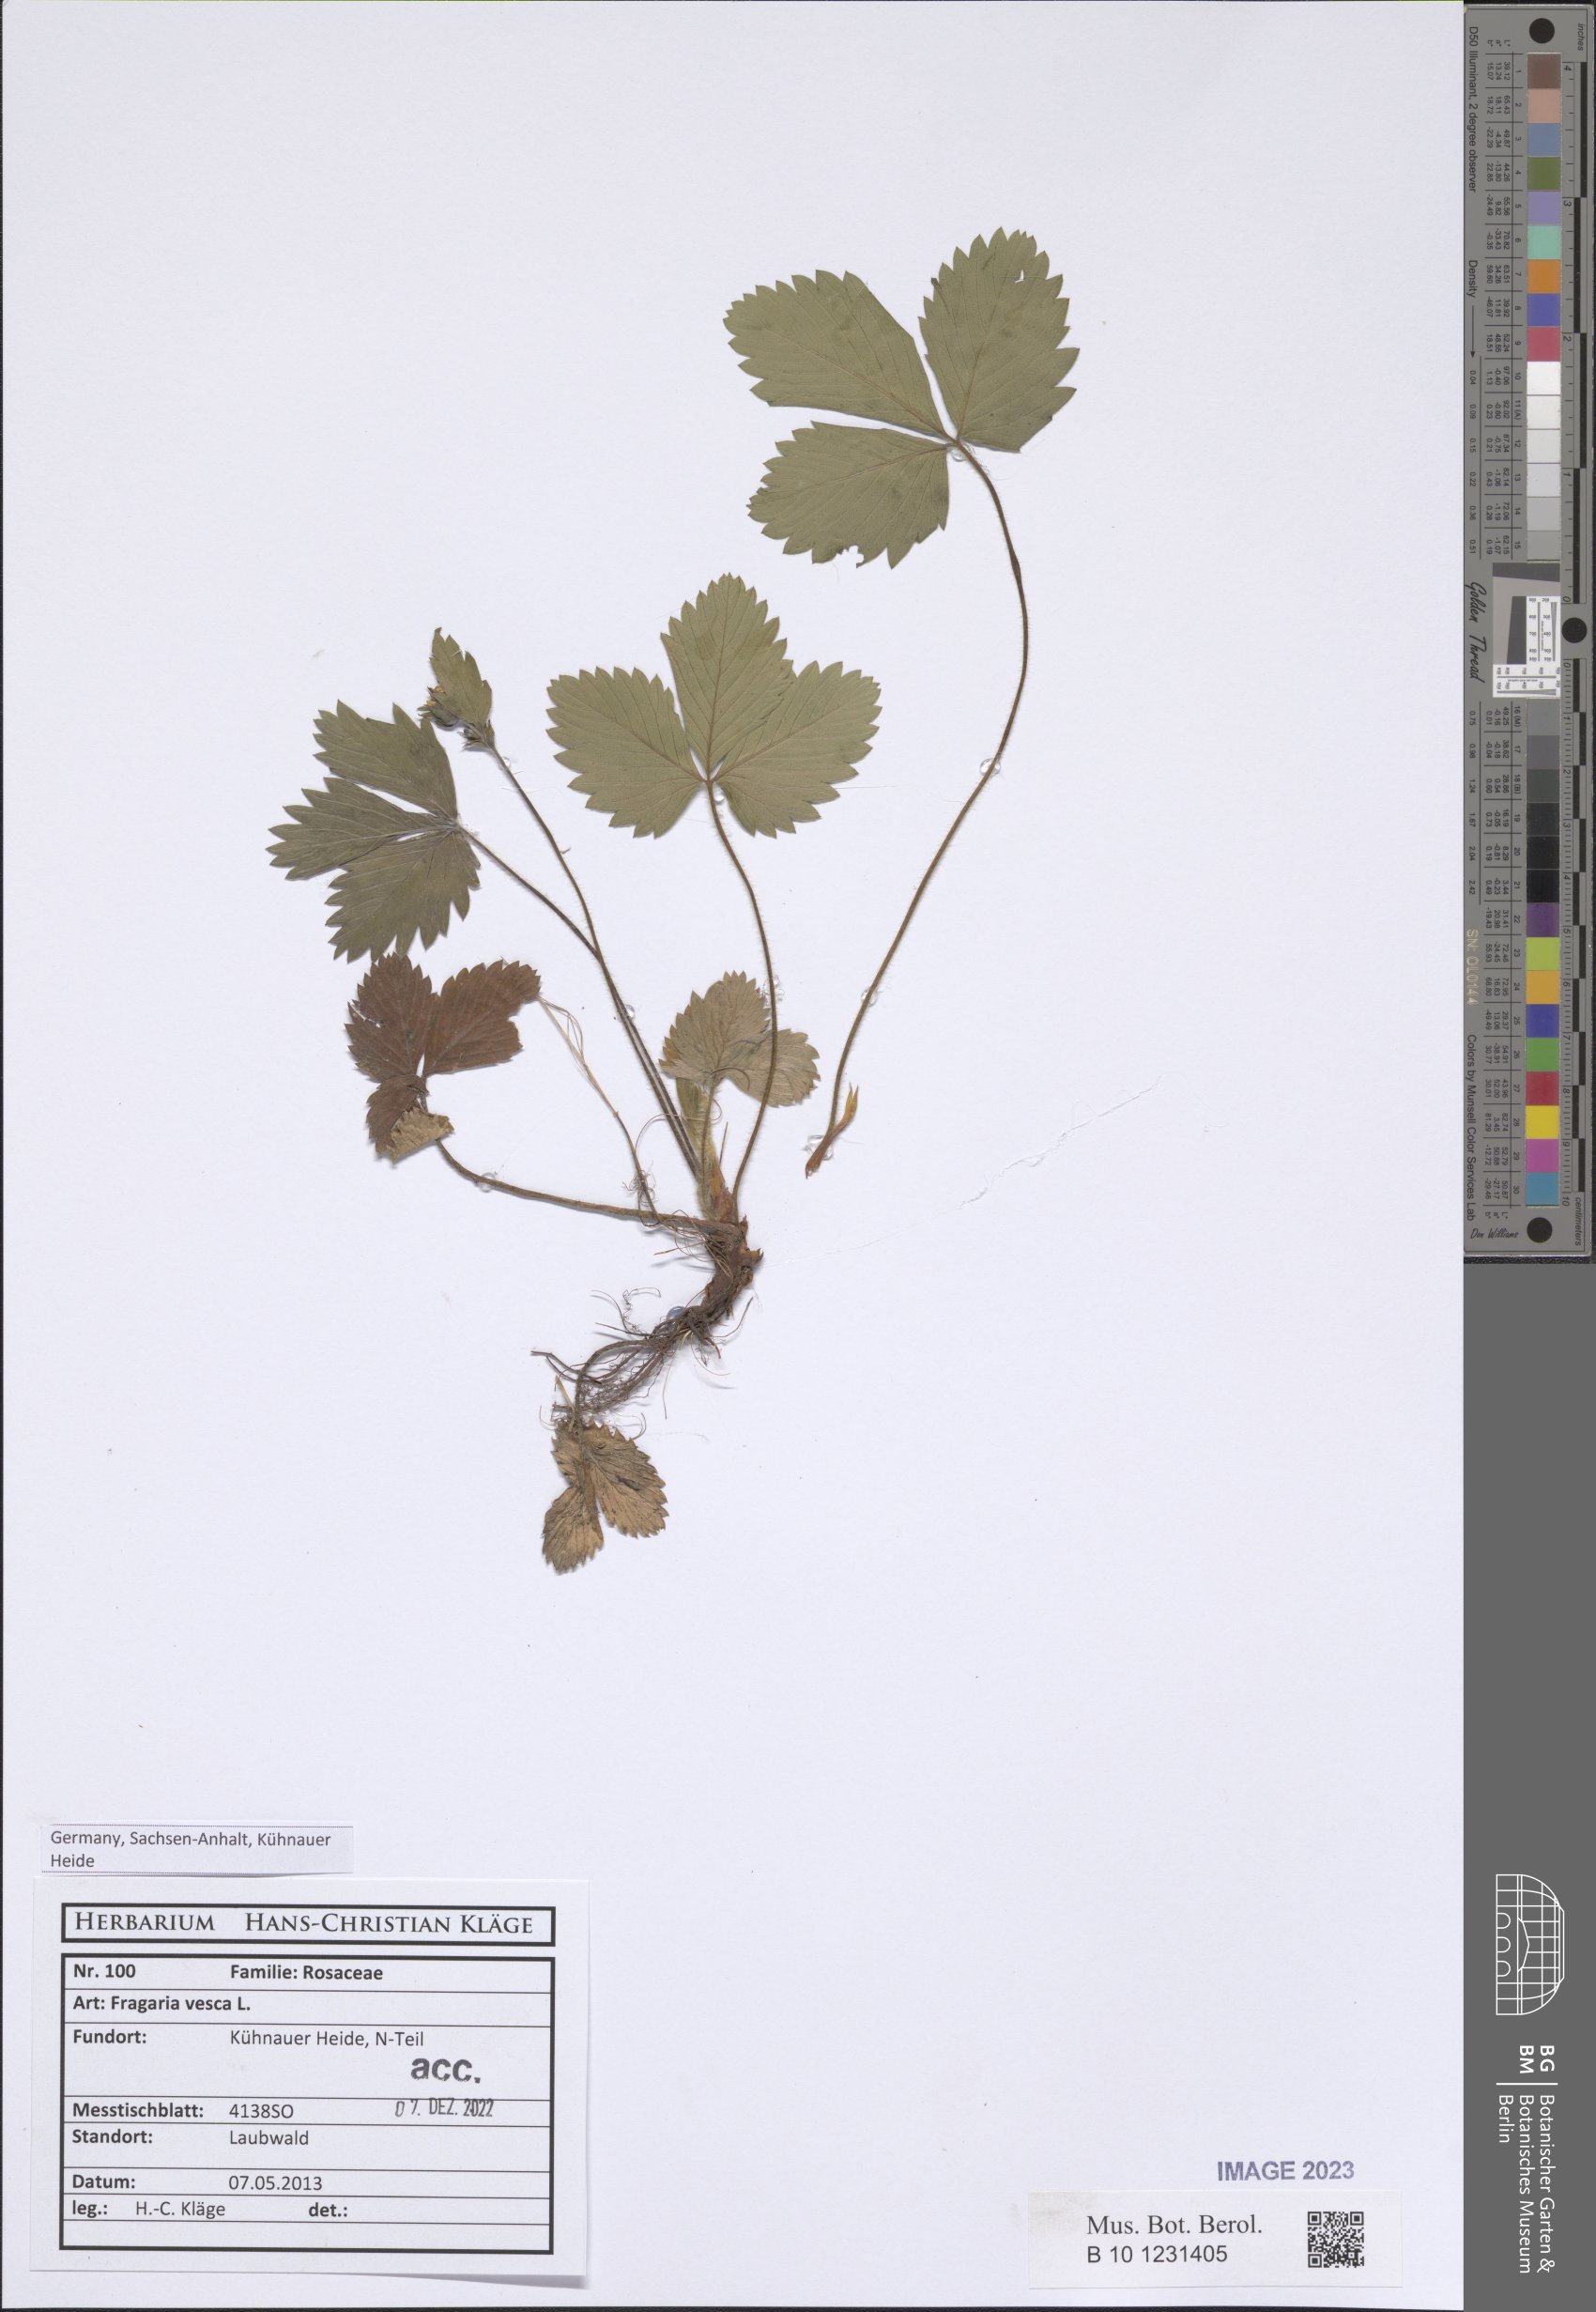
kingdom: Plantae
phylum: Tracheophyta
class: Magnoliopsida
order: Rosales
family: Rosaceae
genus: Fragaria
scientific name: Fragaria vesca
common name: Wild strawberry
